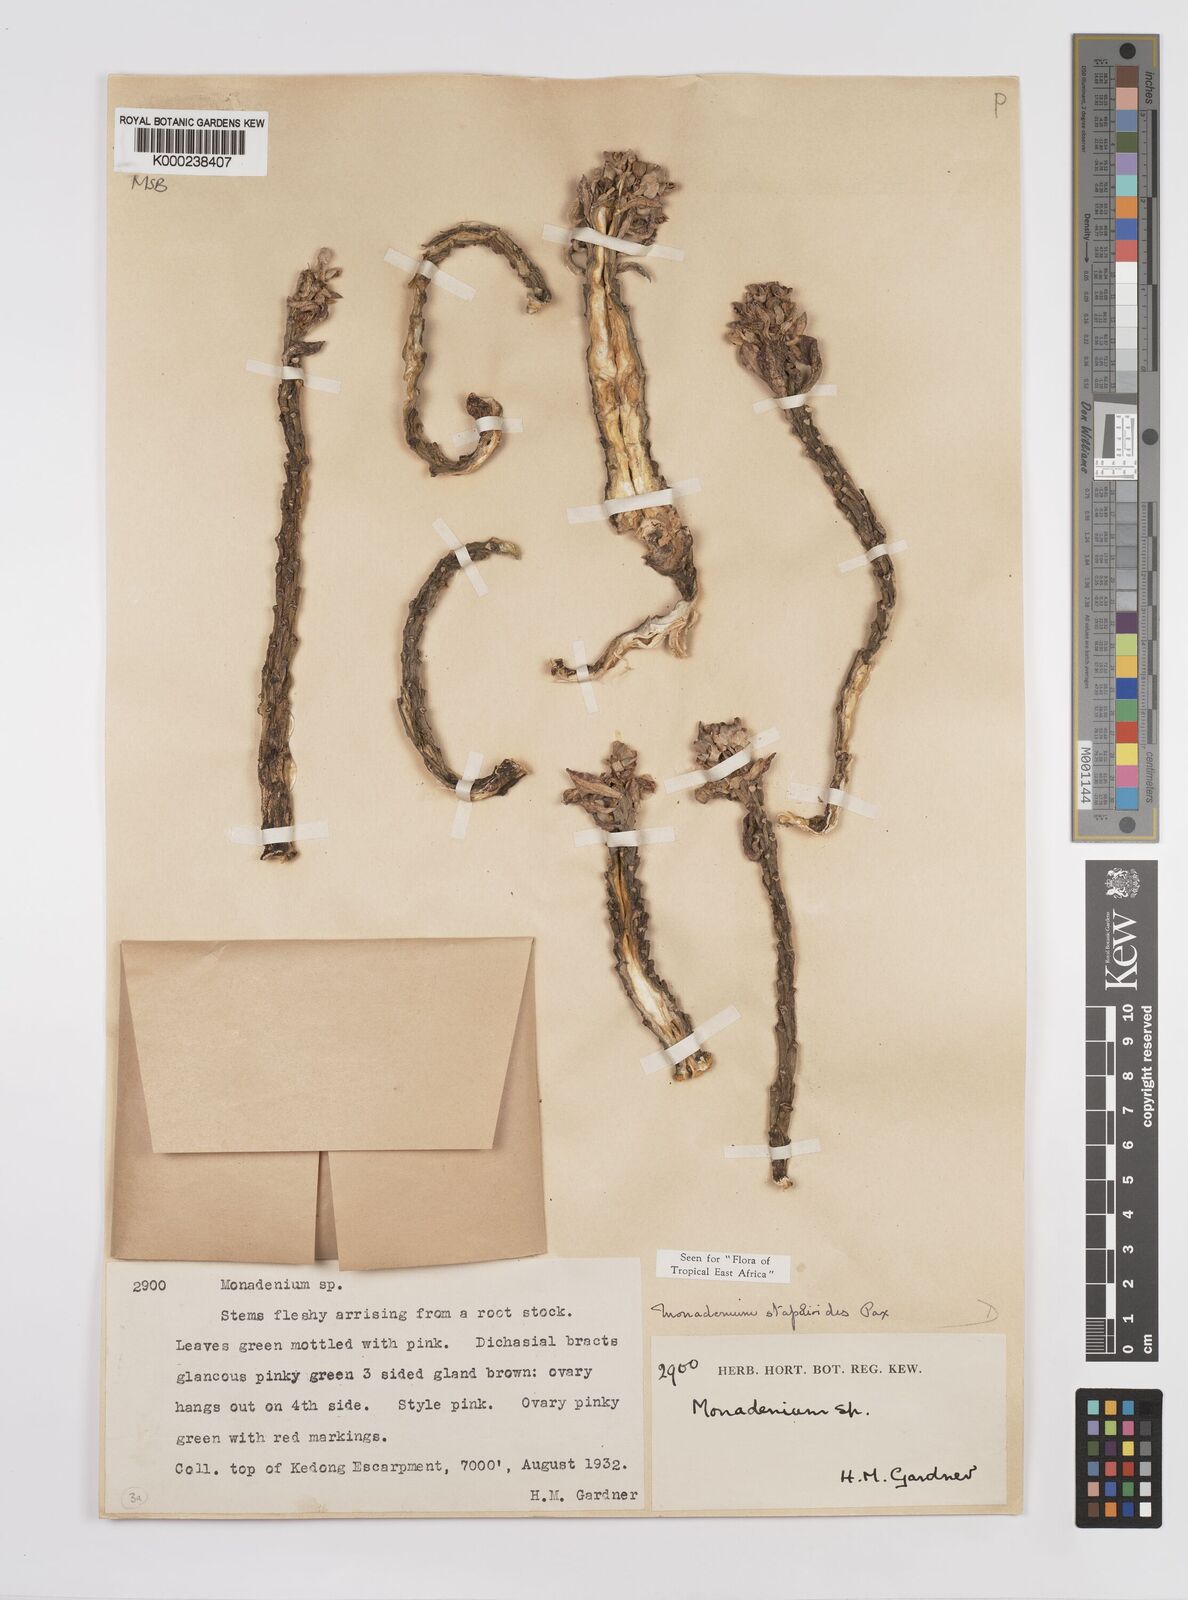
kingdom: Plantae
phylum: Tracheophyta
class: Magnoliopsida
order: Malpighiales
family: Euphorbiaceae
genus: Euphorbia
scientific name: Euphorbia succulenta
